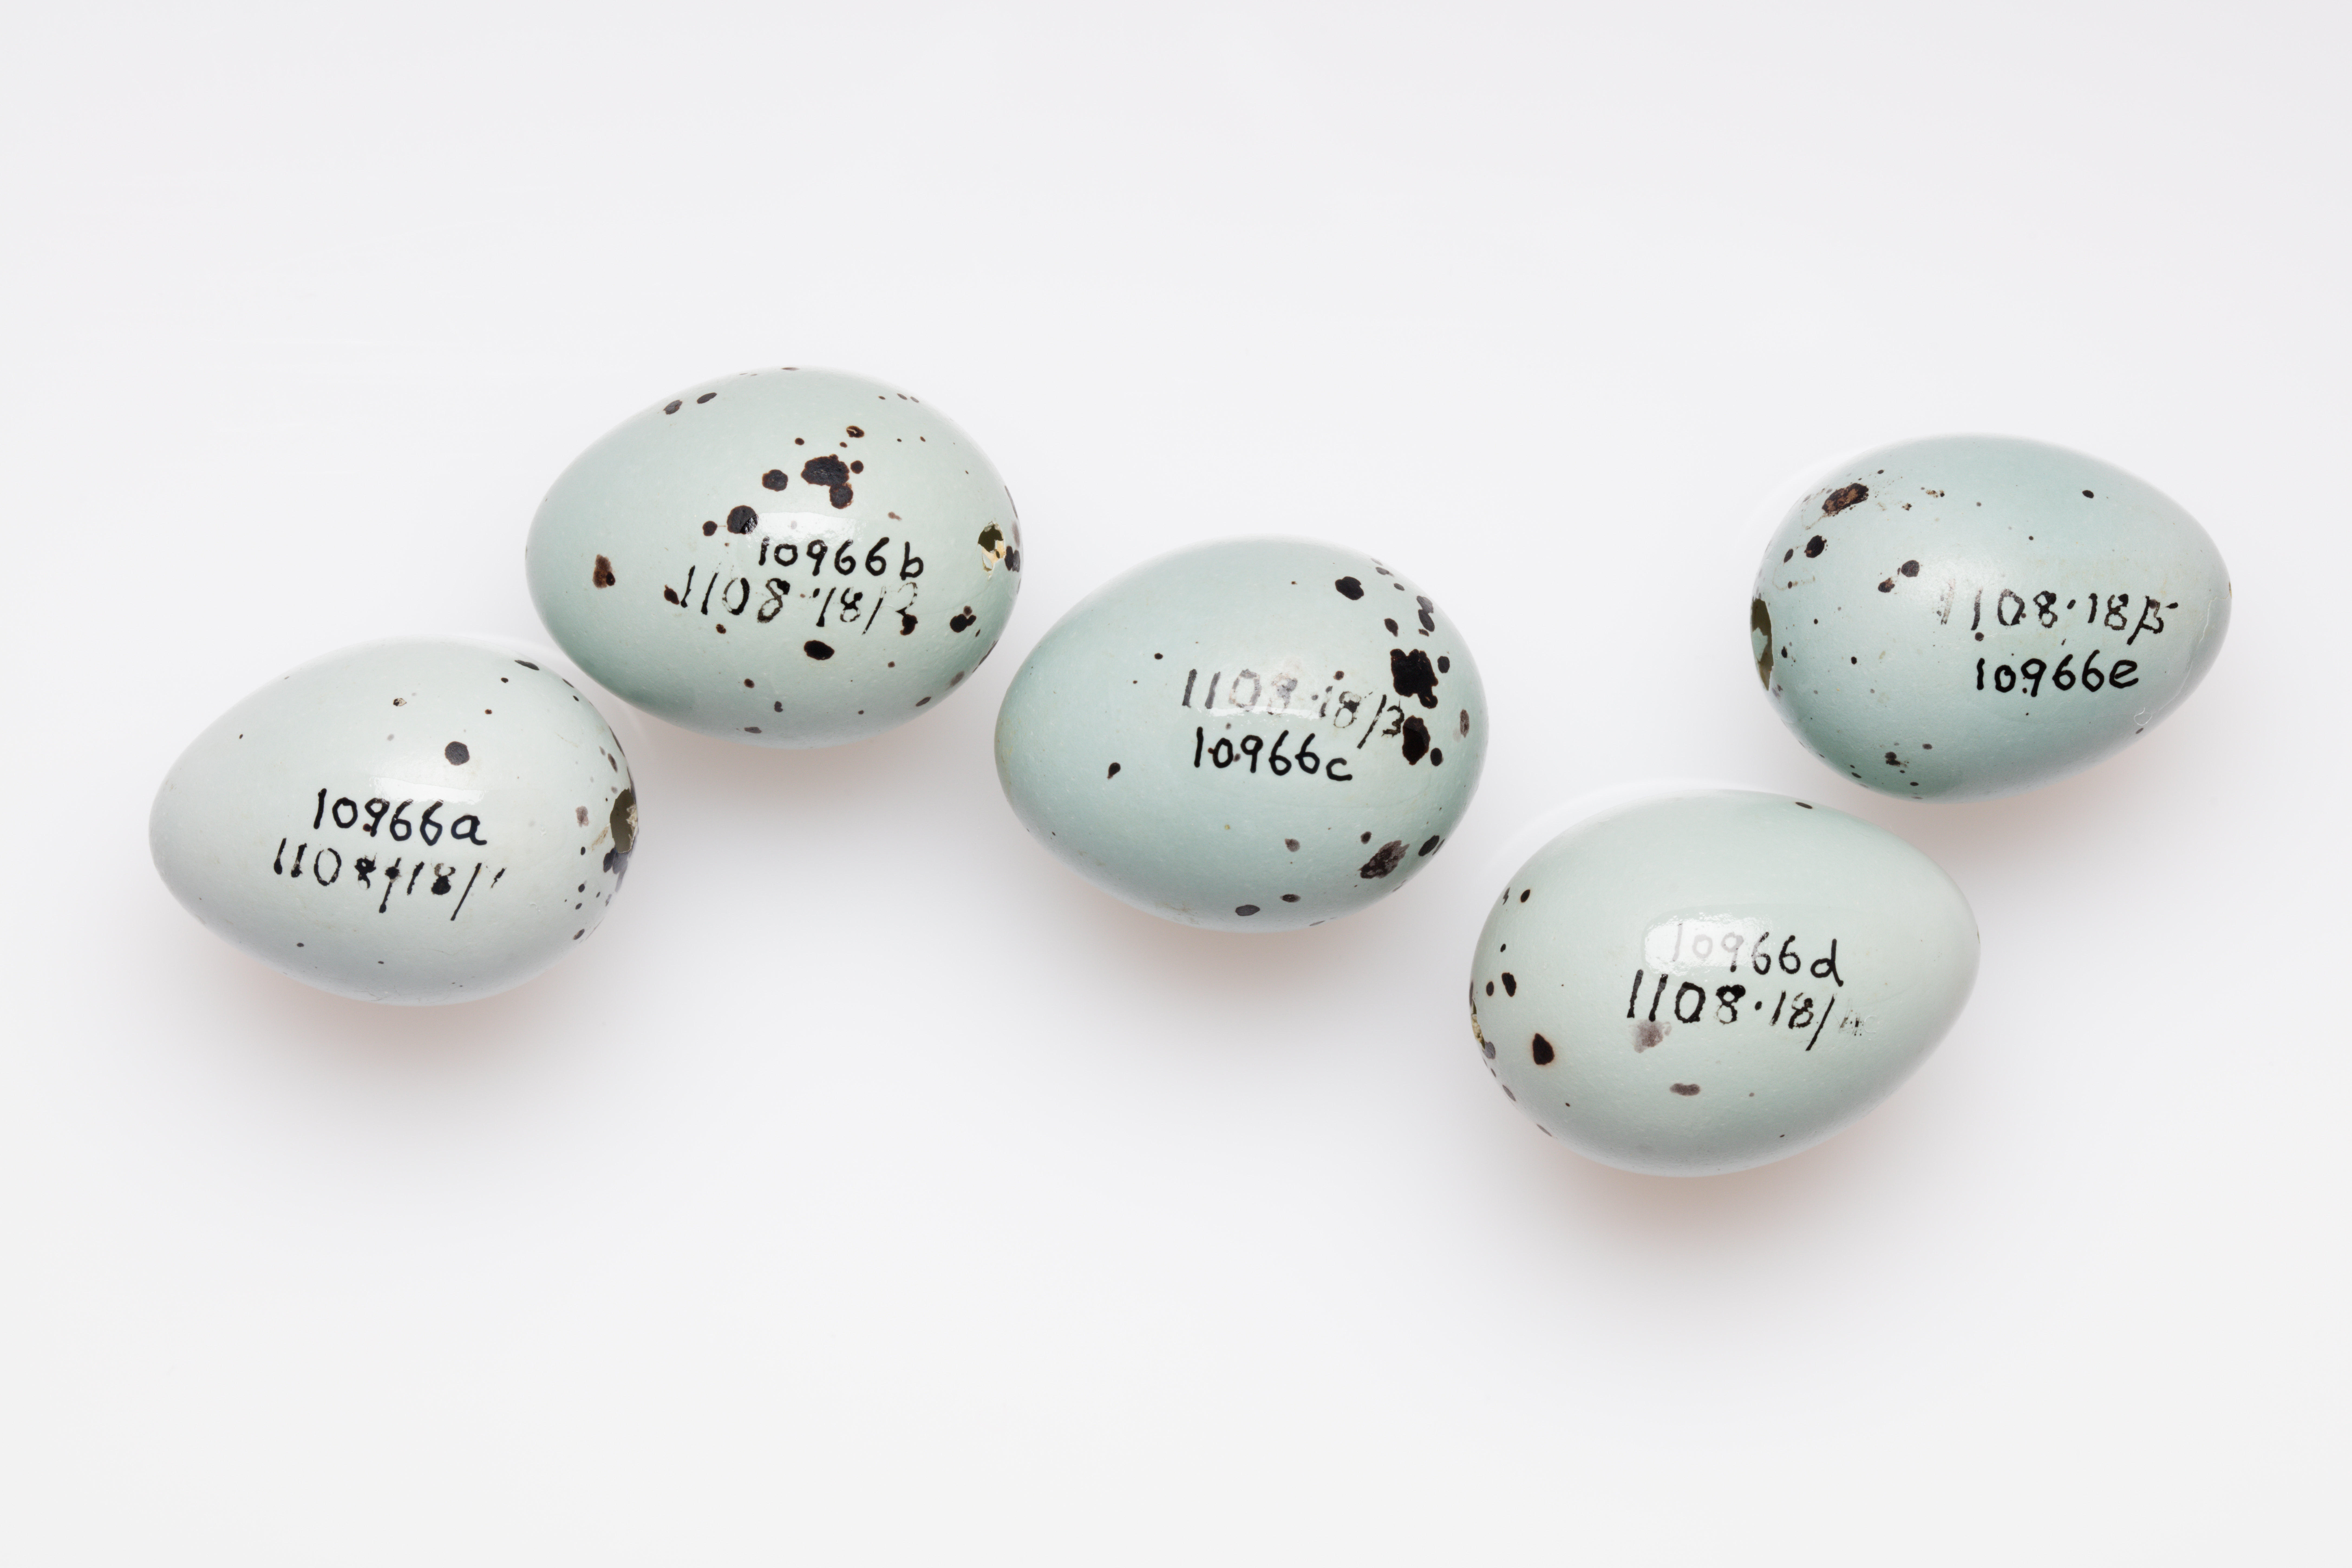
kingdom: Animalia
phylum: Chordata
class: Aves
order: Passeriformes
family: Turdidae
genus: Turdus
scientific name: Turdus philomelos
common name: Song thrush
